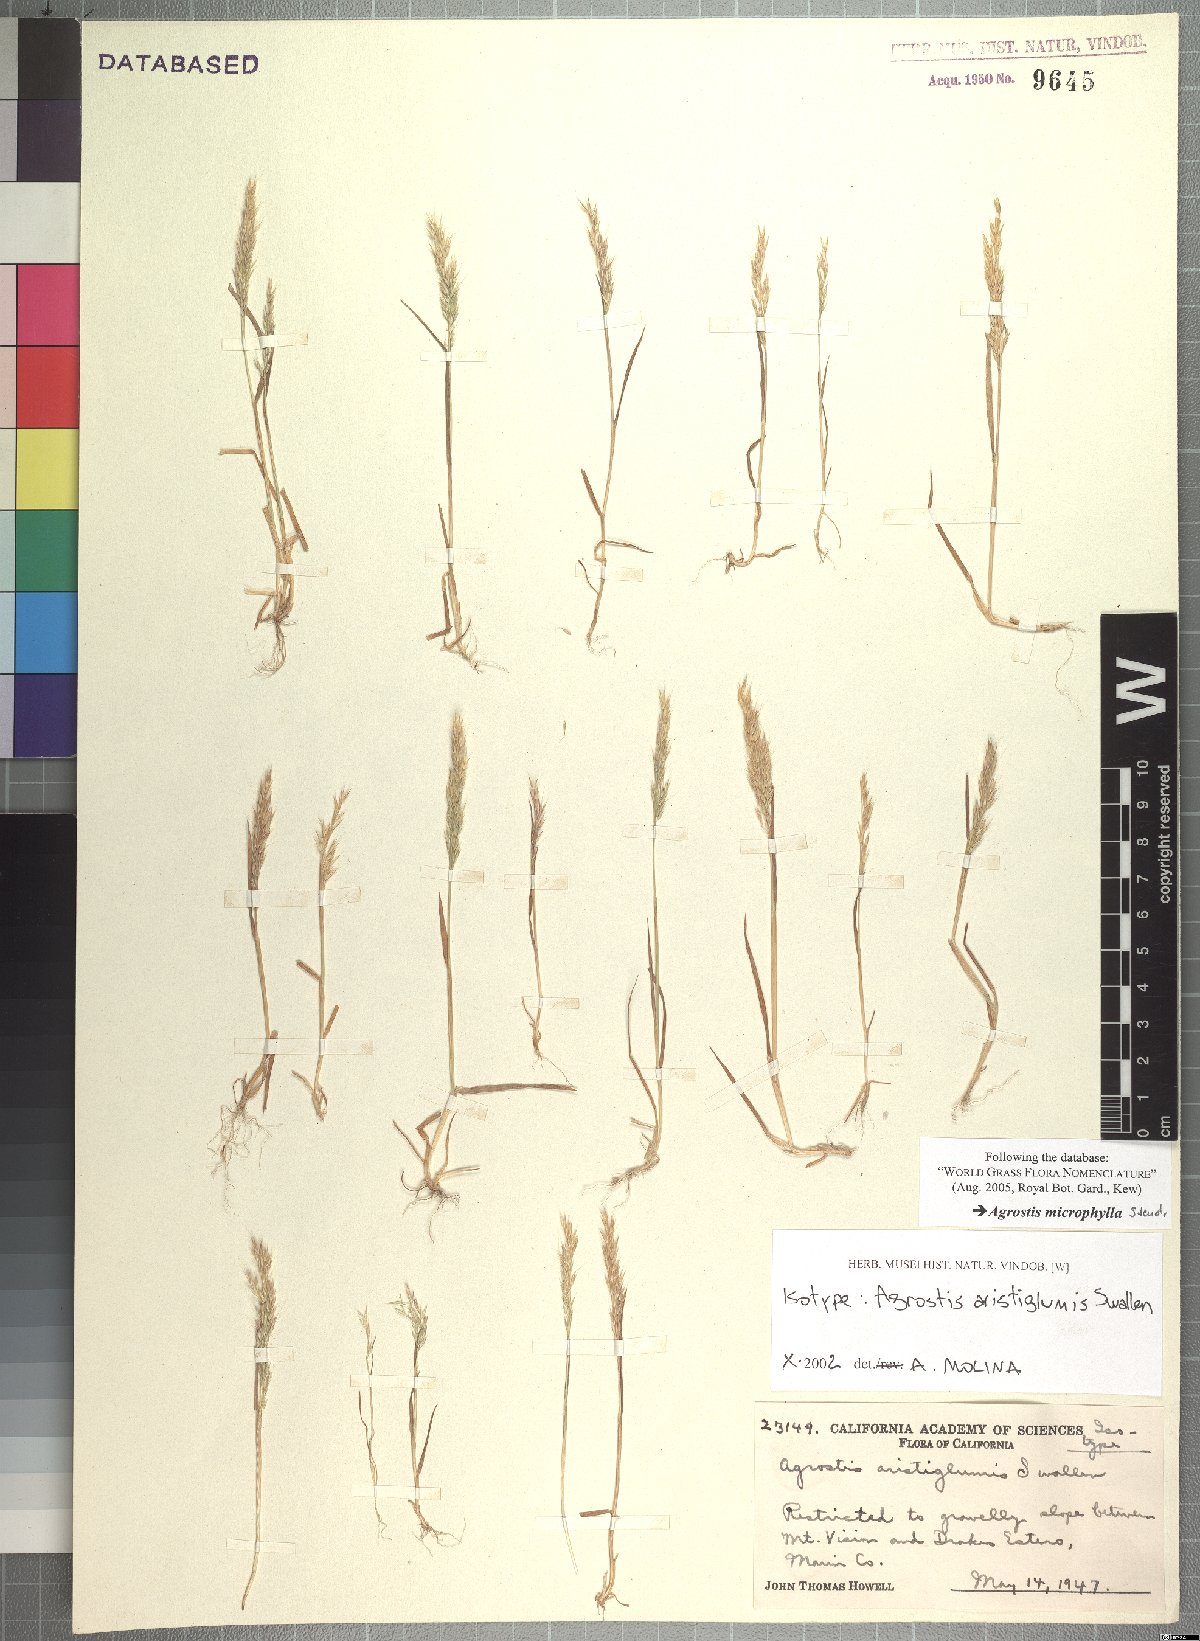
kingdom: Plantae
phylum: Tracheophyta
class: Liliopsida
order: Poales
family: Poaceae
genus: Agrostis
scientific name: Agrostis microphylla
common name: Small-leaf bent
